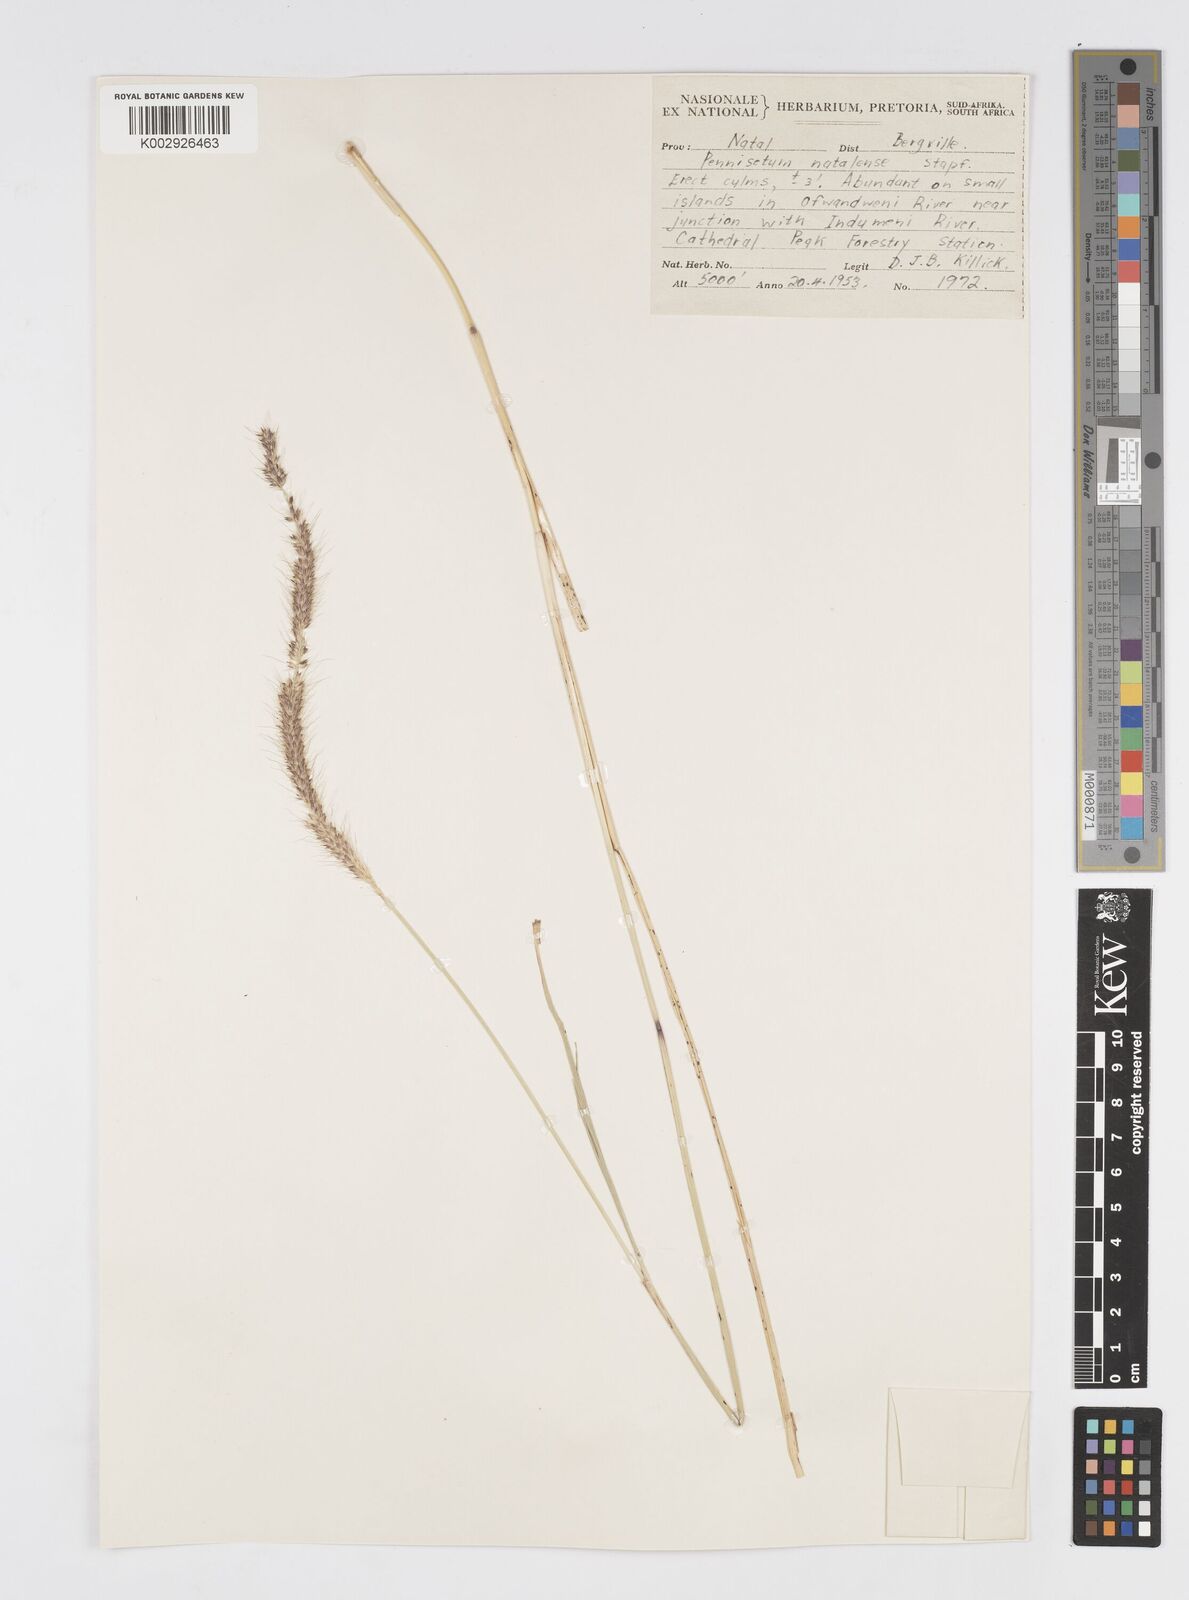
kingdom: Plantae
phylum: Tracheophyta
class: Liliopsida
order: Poales
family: Poaceae
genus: Cenchrus
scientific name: Cenchrus caudatus
